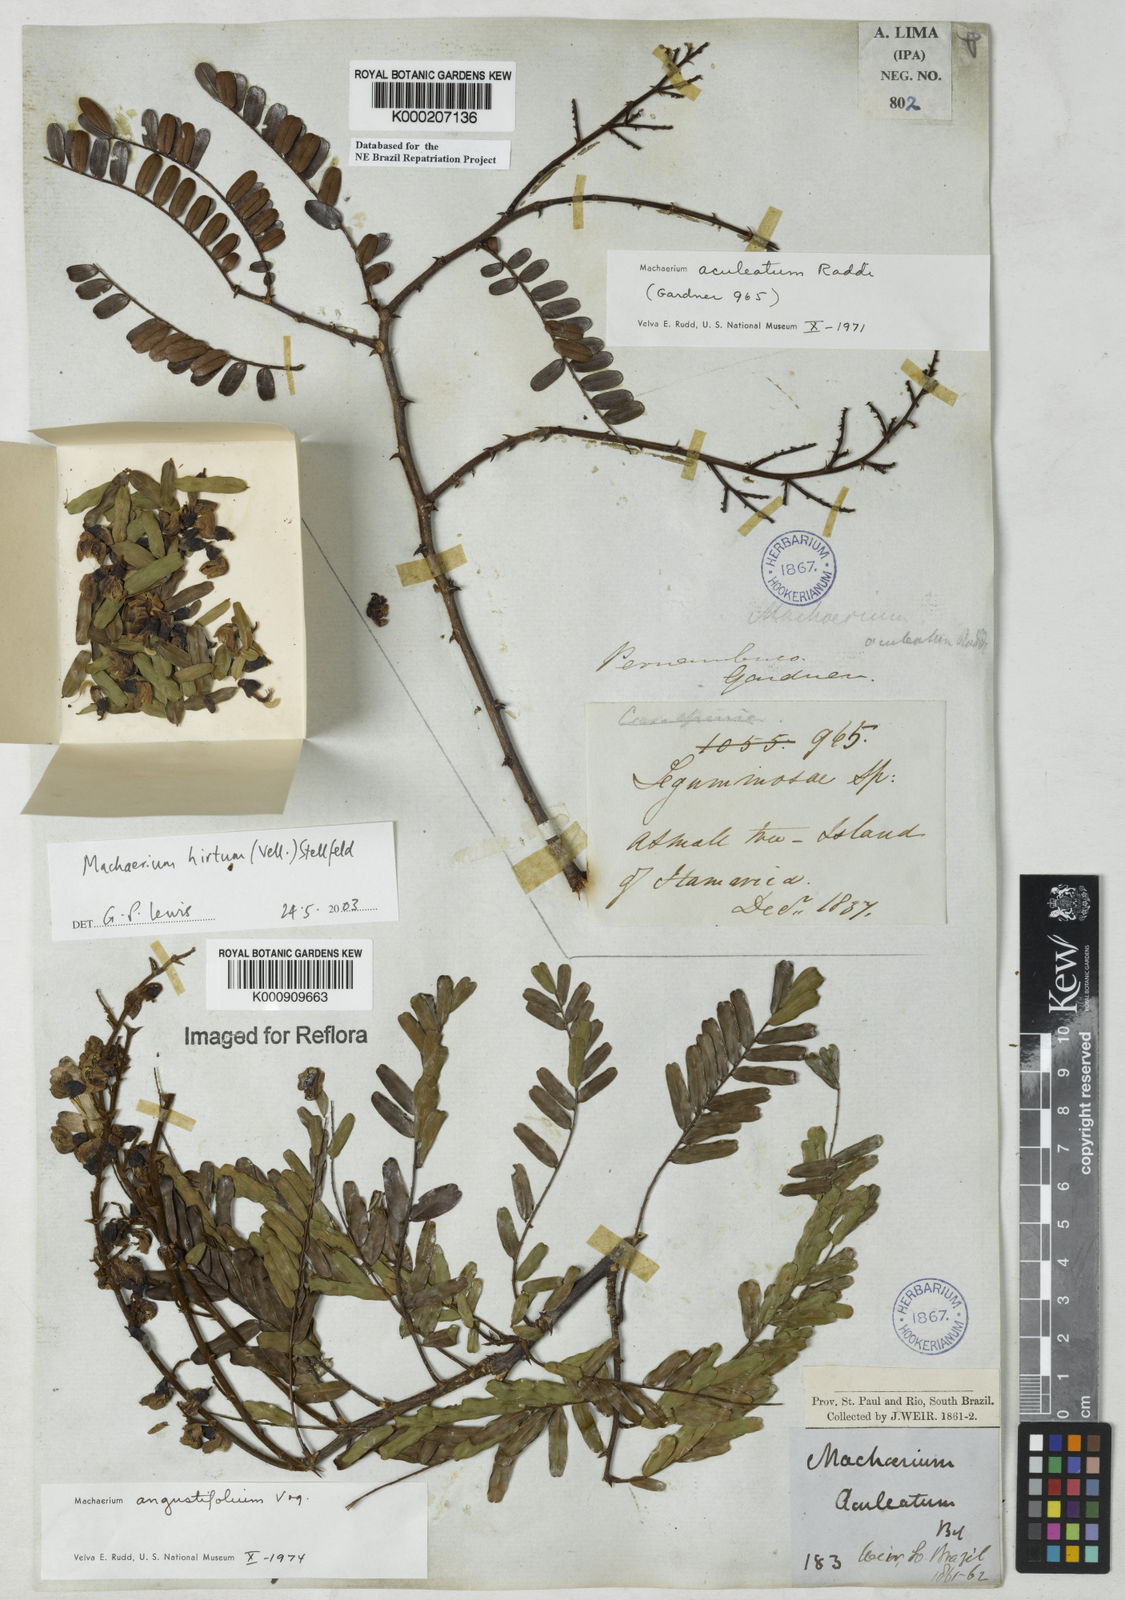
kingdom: Plantae
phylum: Tracheophyta
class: Magnoliopsida
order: Fabales
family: Fabaceae
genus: Machaerium
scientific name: Machaerium hirtum
